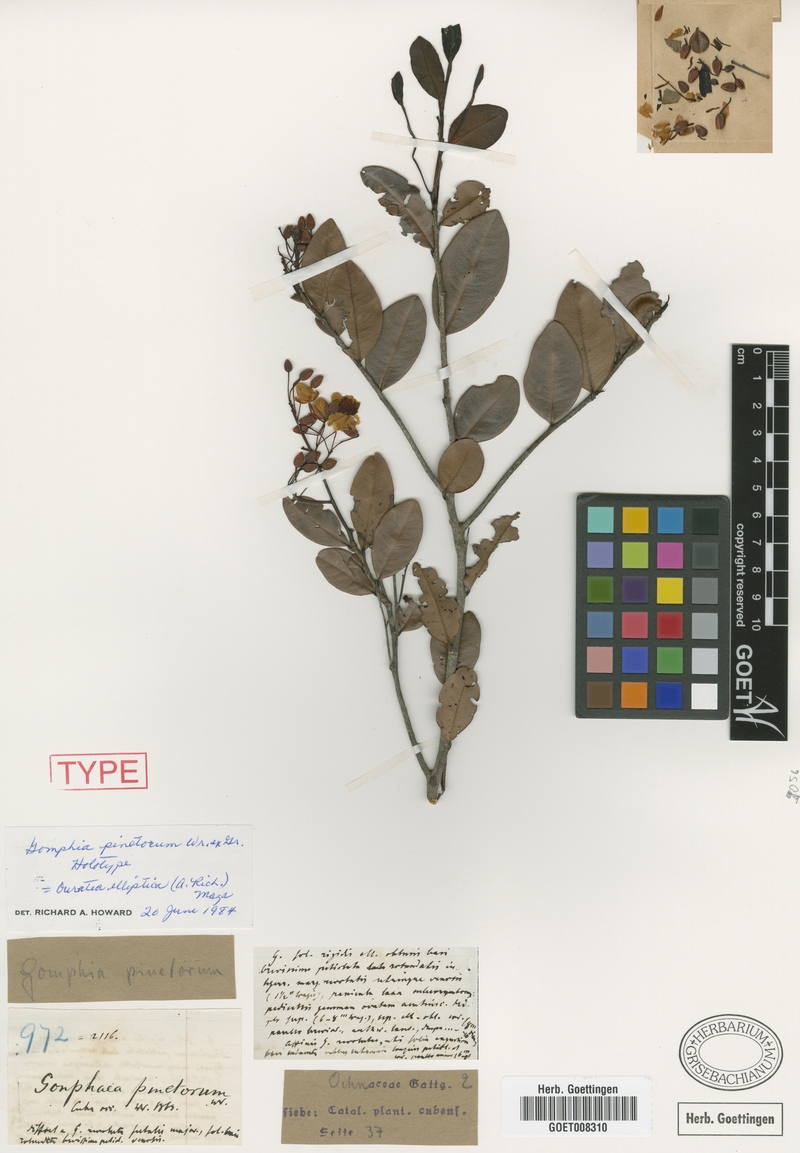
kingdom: Plantae
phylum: Tracheophyta
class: Magnoliopsida
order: Malpighiales
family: Ochnaceae
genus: Ouratea
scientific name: Ouratea elliptica
